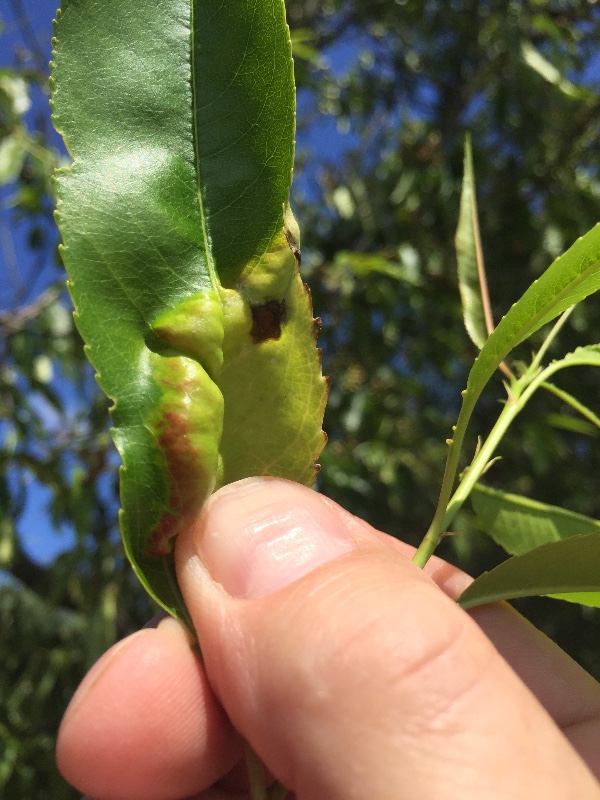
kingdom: Fungi
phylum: Ascomycota
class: Taphrinomycetes
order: Taphrinales
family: Taphrinaceae
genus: Taphrina
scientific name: Taphrina farlowii
